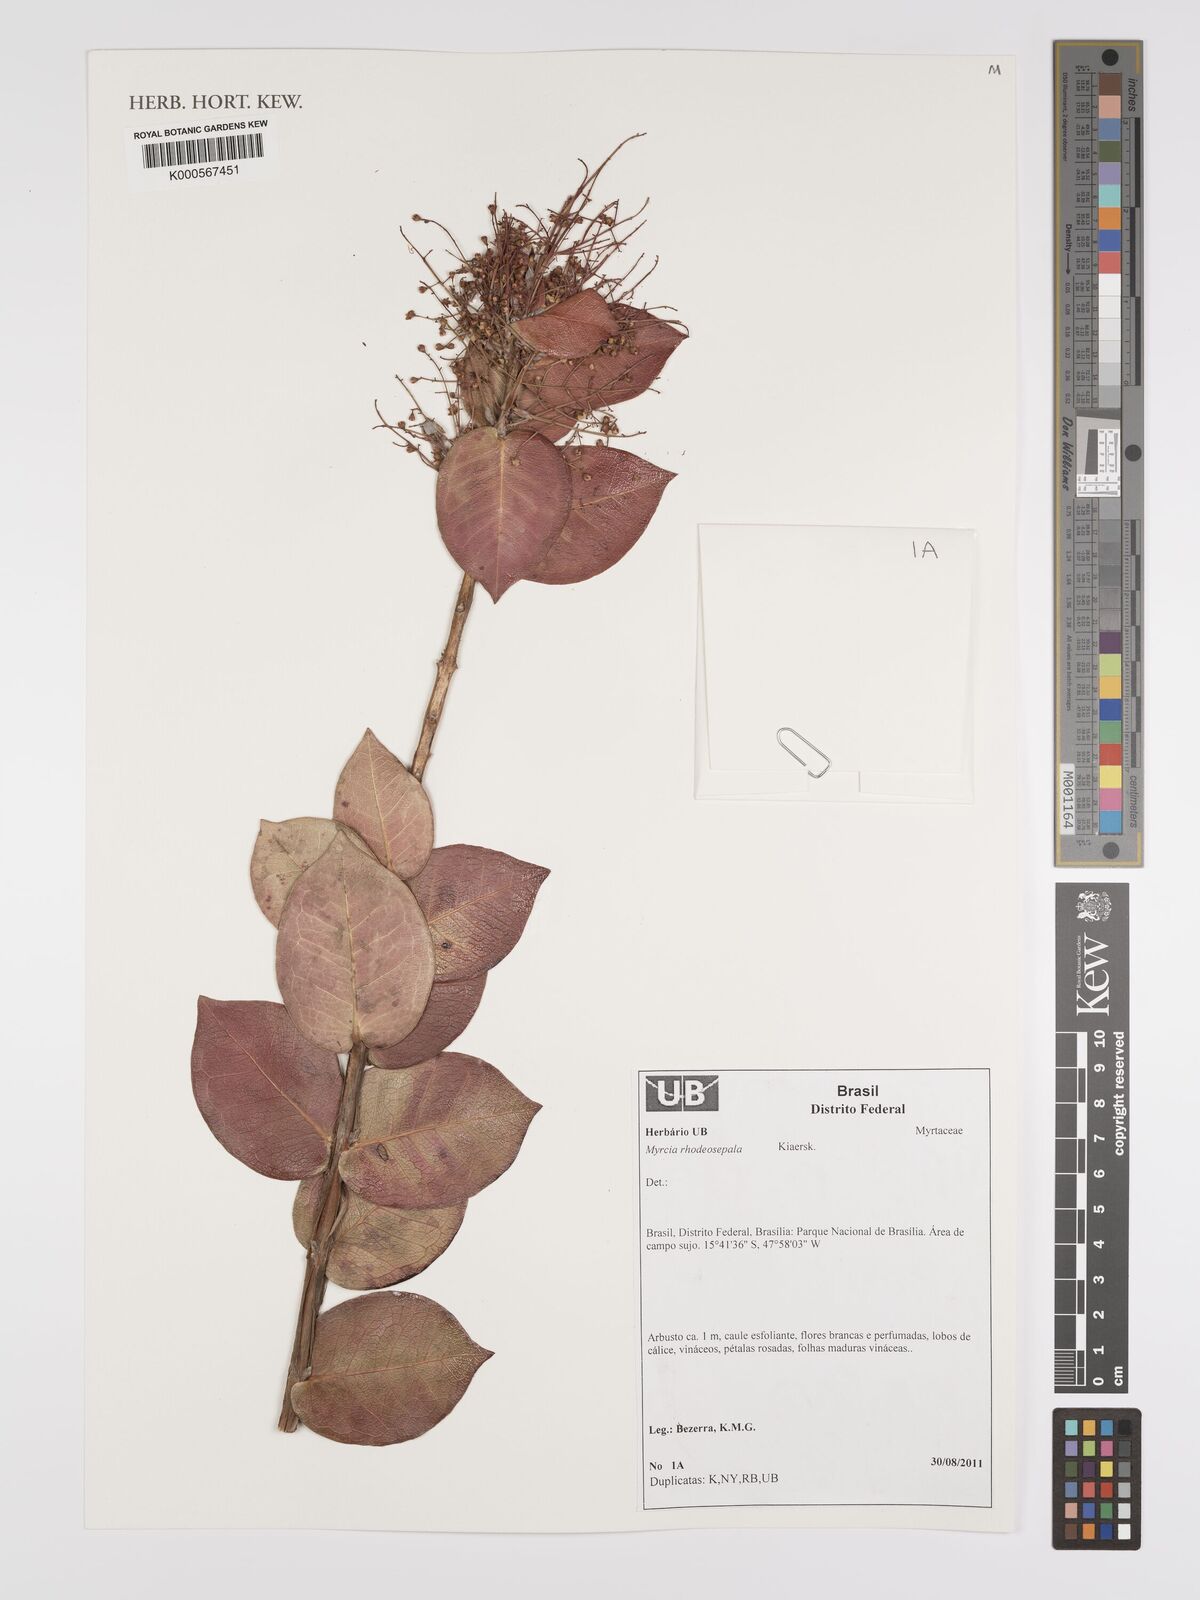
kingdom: Plantae
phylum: Tracheophyta
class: Magnoliopsida
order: Myrtales
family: Myrtaceae
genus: Myrcia
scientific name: Myrcia tomentosa
